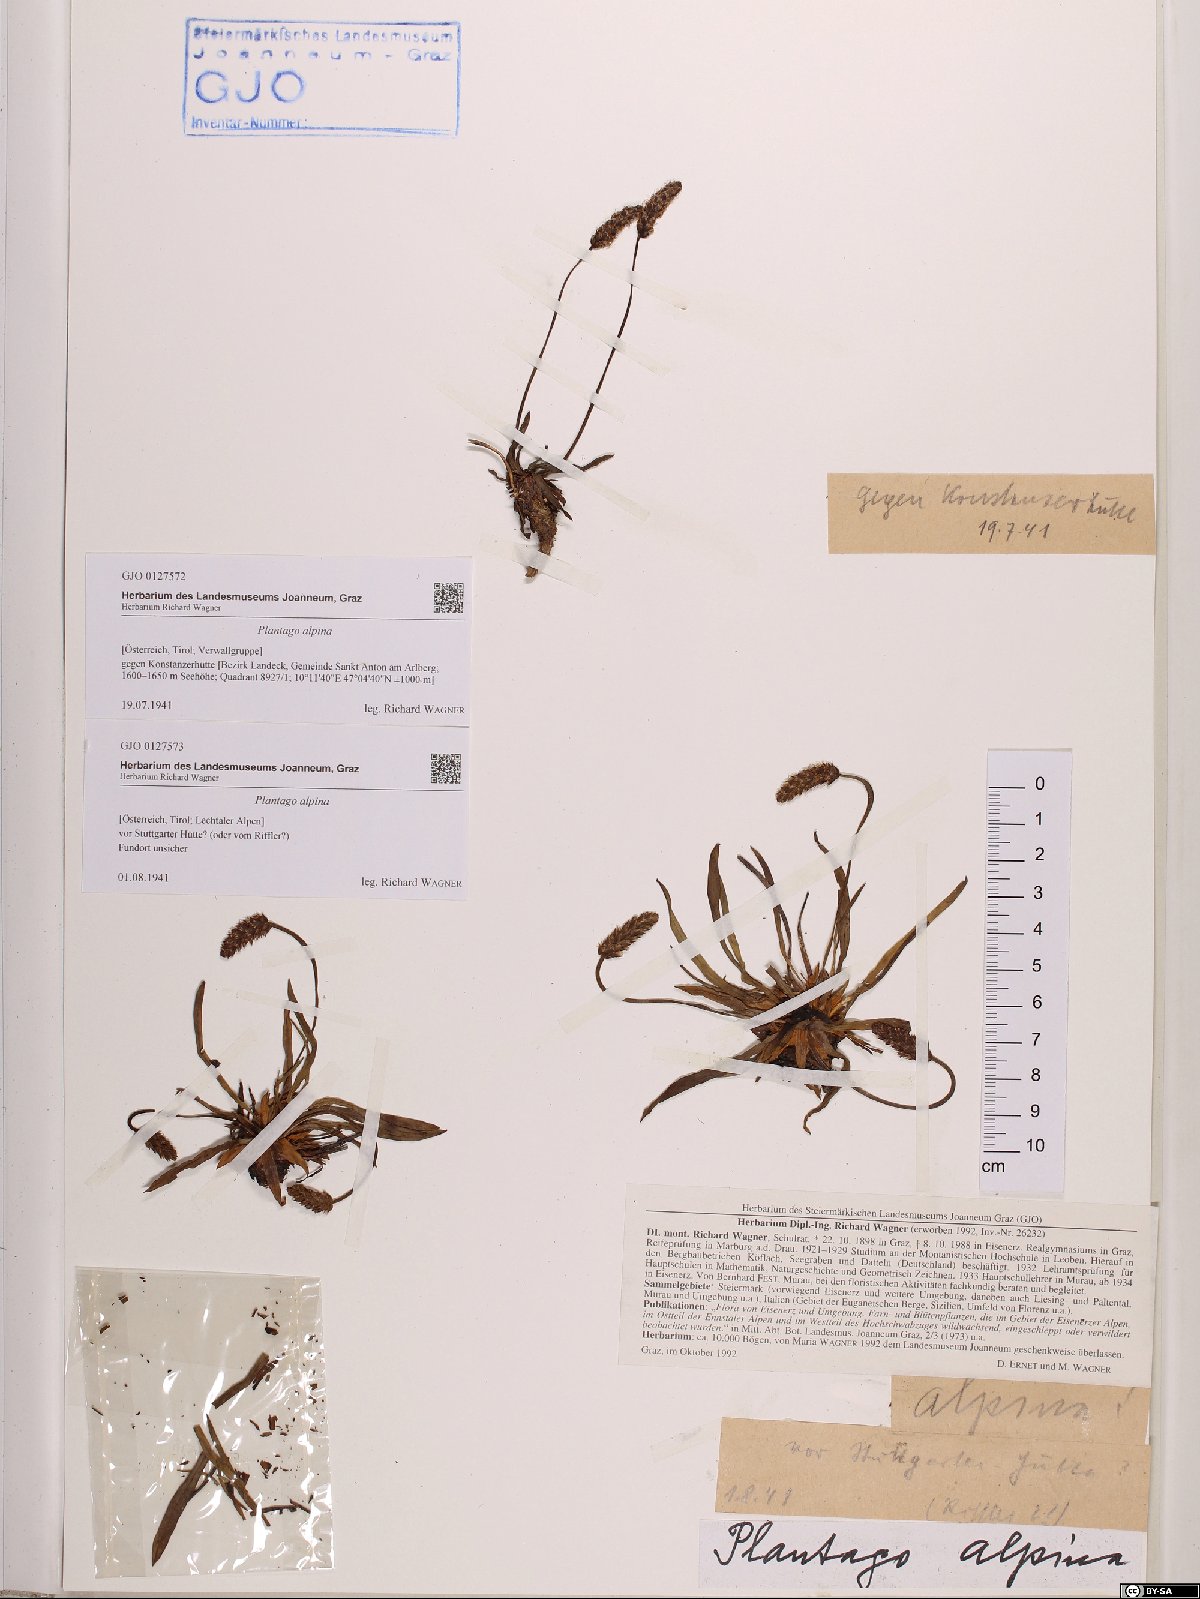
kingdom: Plantae
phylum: Tracheophyta
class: Magnoliopsida
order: Lamiales
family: Plantaginaceae
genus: Plantago
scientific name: Plantago alpina
